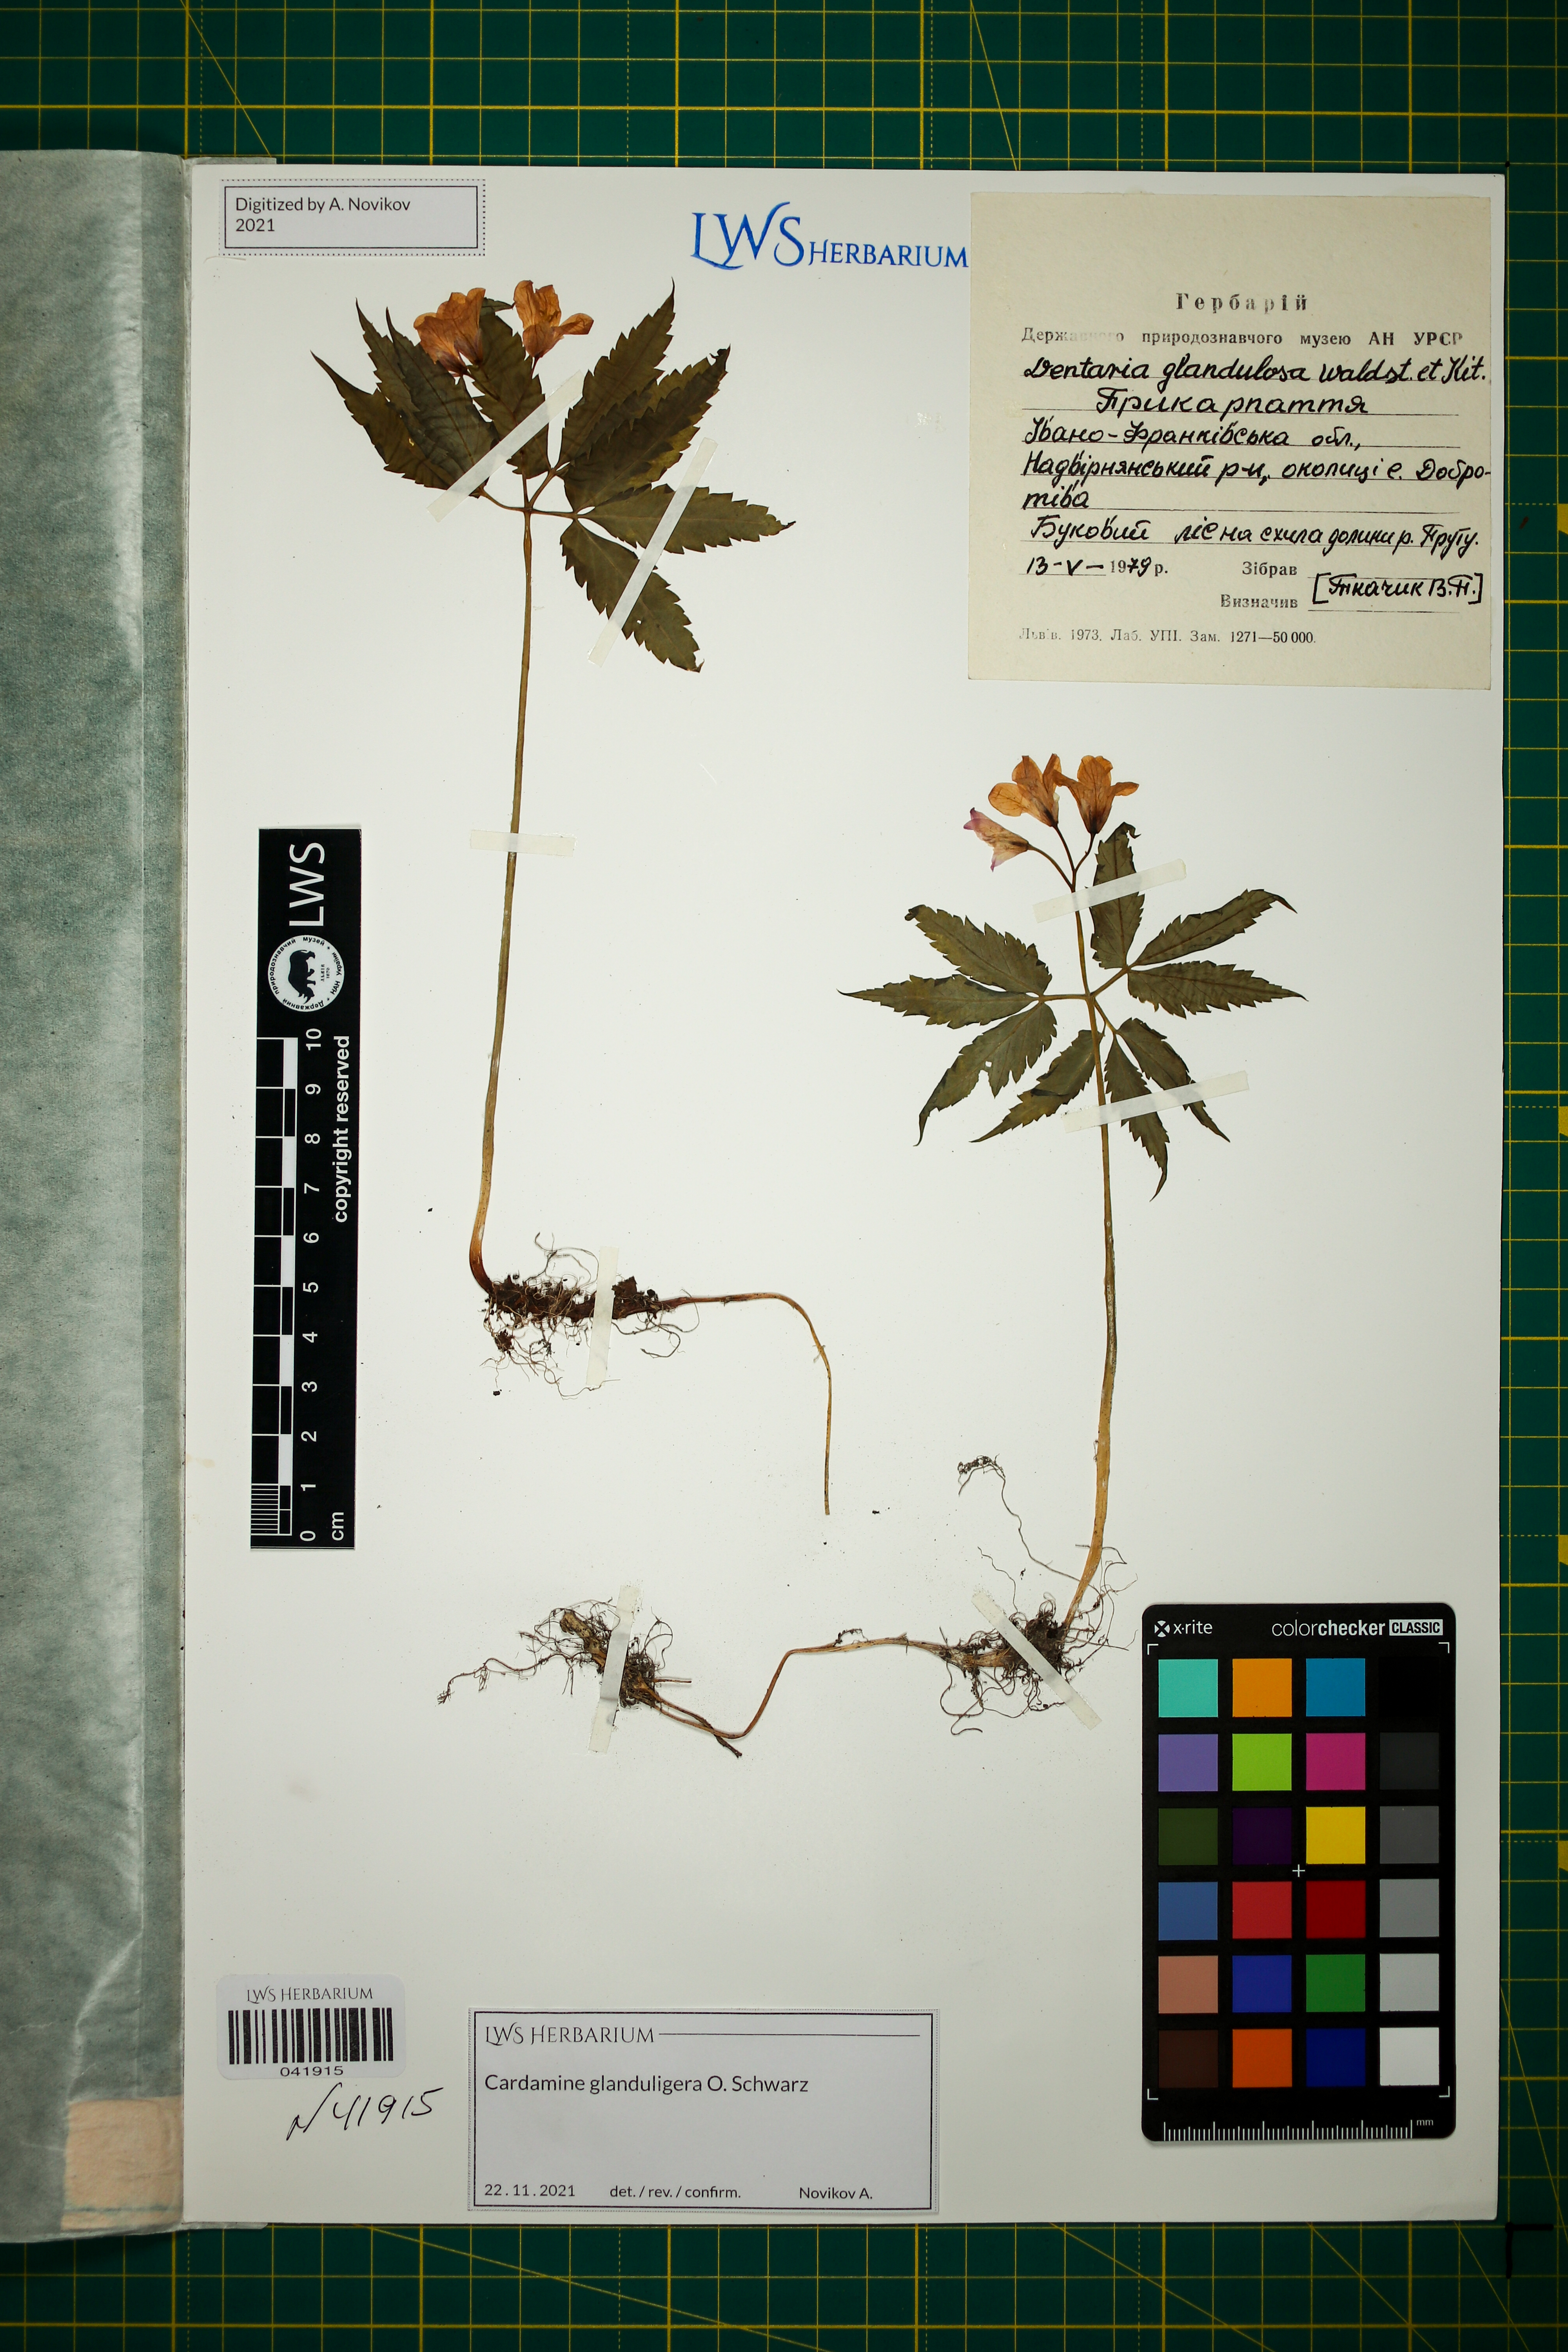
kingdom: Plantae
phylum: Tracheophyta
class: Magnoliopsida
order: Brassicales
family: Brassicaceae
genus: Cardamine
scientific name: Cardamine glanduligera
